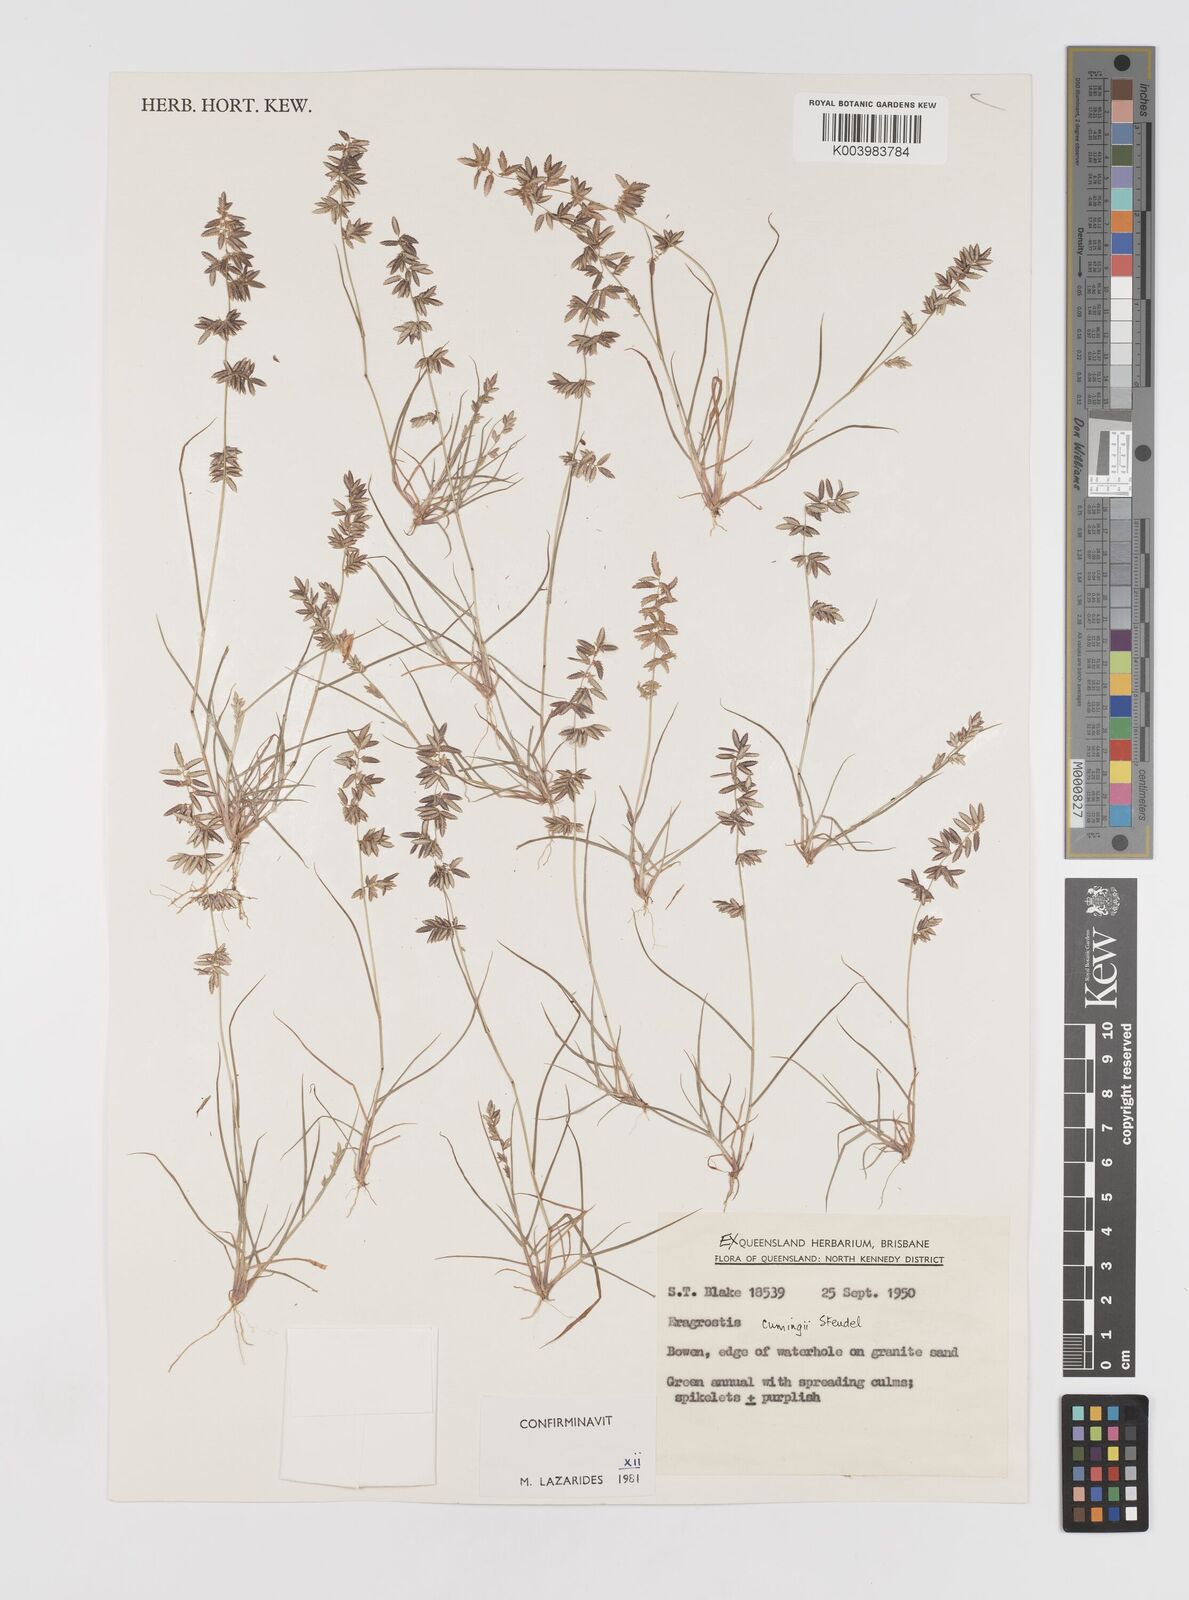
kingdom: Plantae
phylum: Tracheophyta
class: Liliopsida
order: Poales
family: Poaceae
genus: Eragrostis
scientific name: Eragrostis cumingii
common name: Cuming's lovegrass
